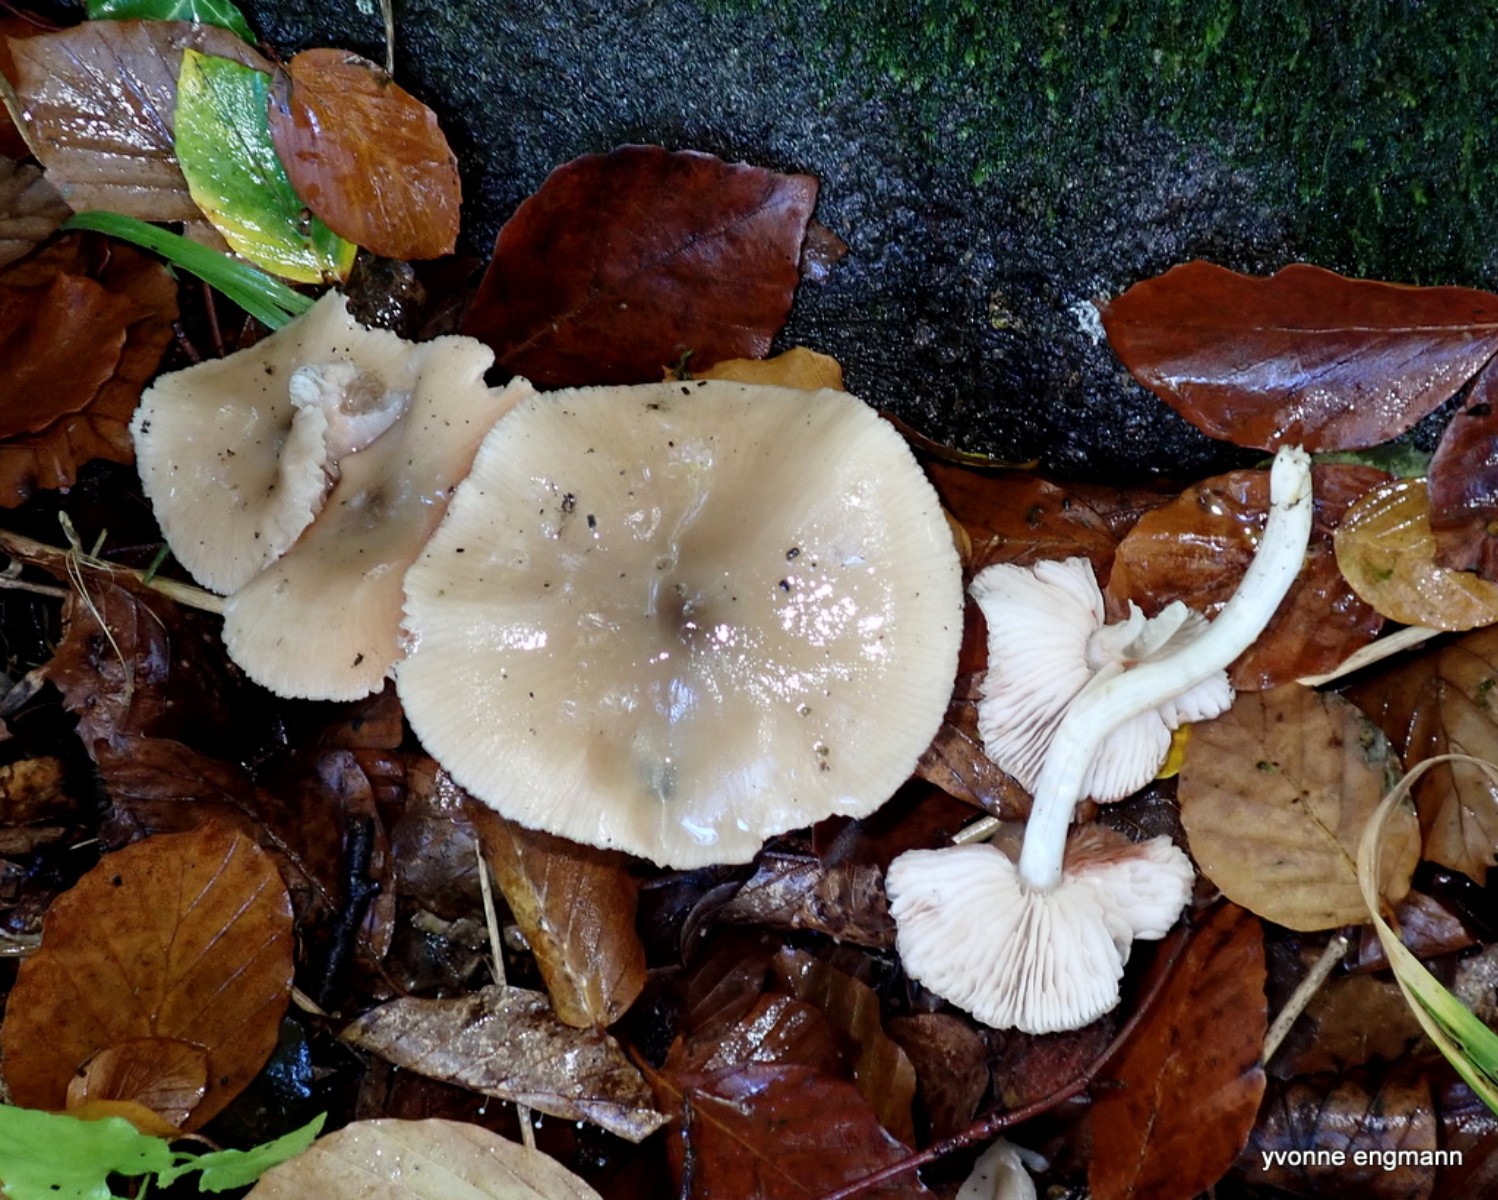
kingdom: Fungi
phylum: Basidiomycota
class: Agaricomycetes
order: Agaricales
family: Entolomataceae
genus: Entoloma
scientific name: Entoloma
